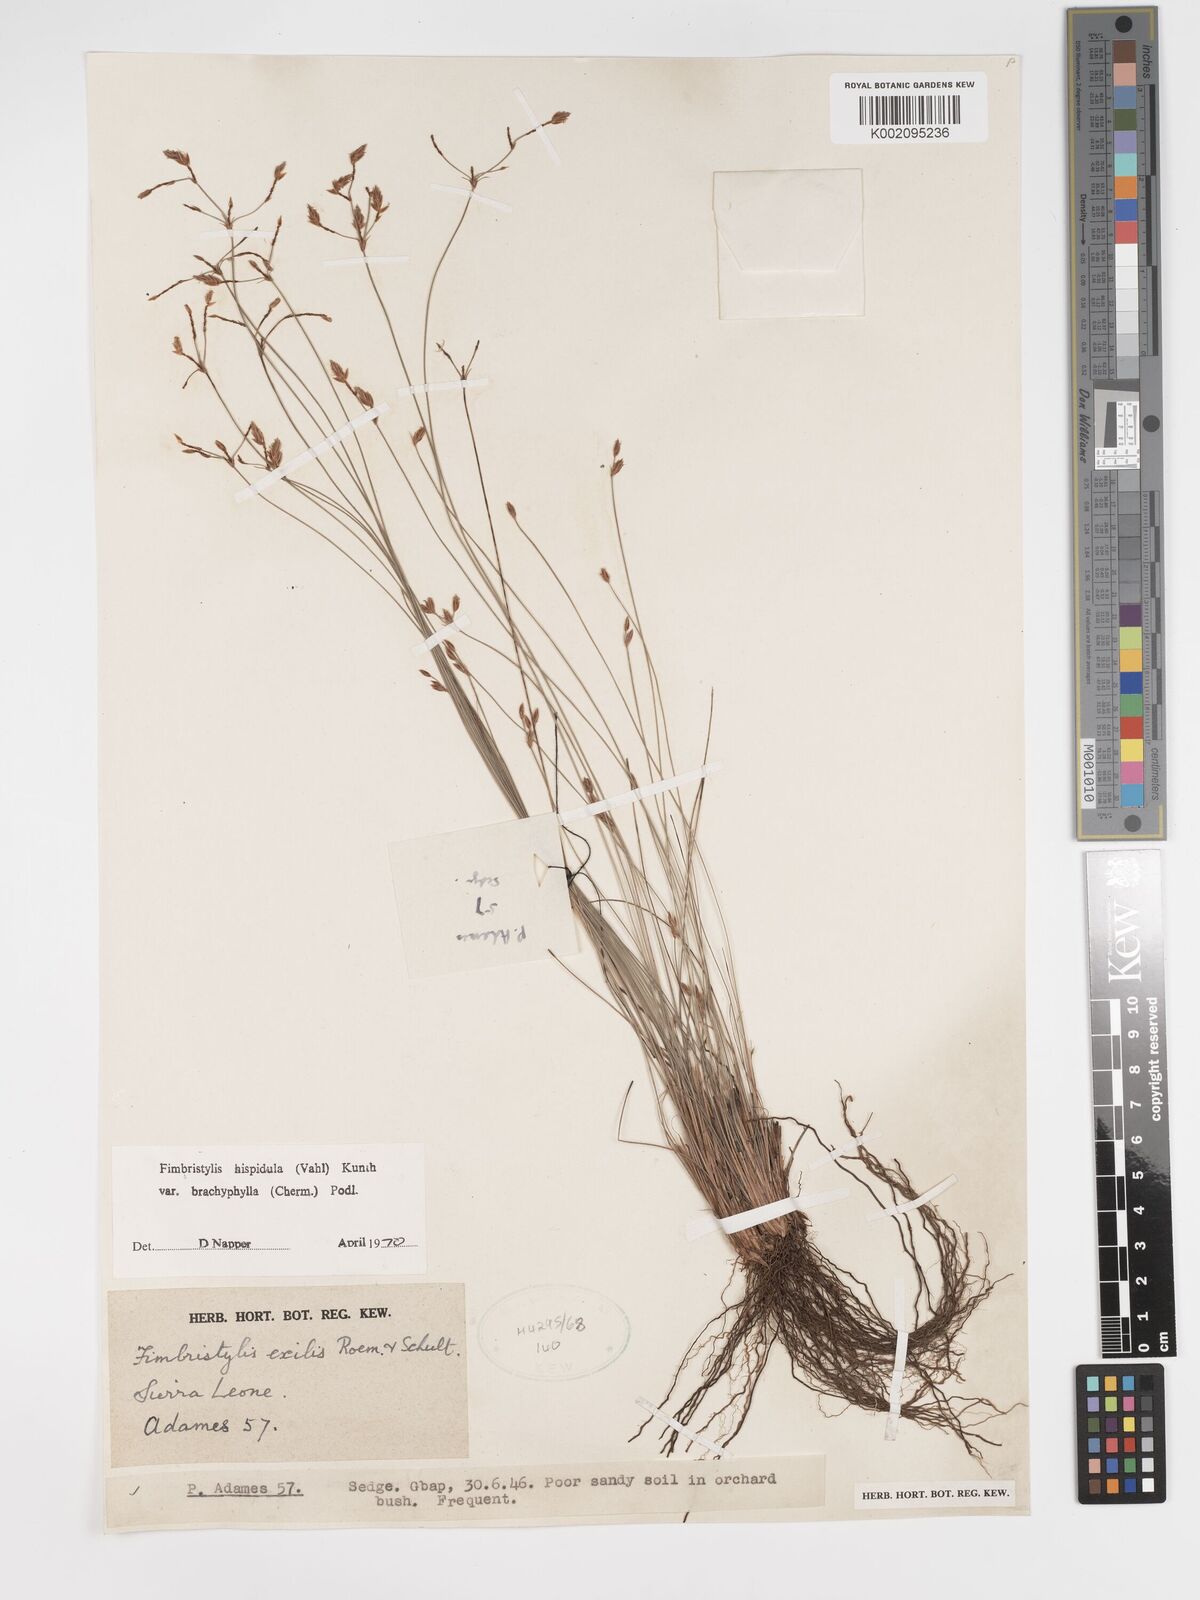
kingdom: Plantae
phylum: Tracheophyta
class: Liliopsida
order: Poales
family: Cyperaceae
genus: Bulbostylis
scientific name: Bulbostylis hispidula
